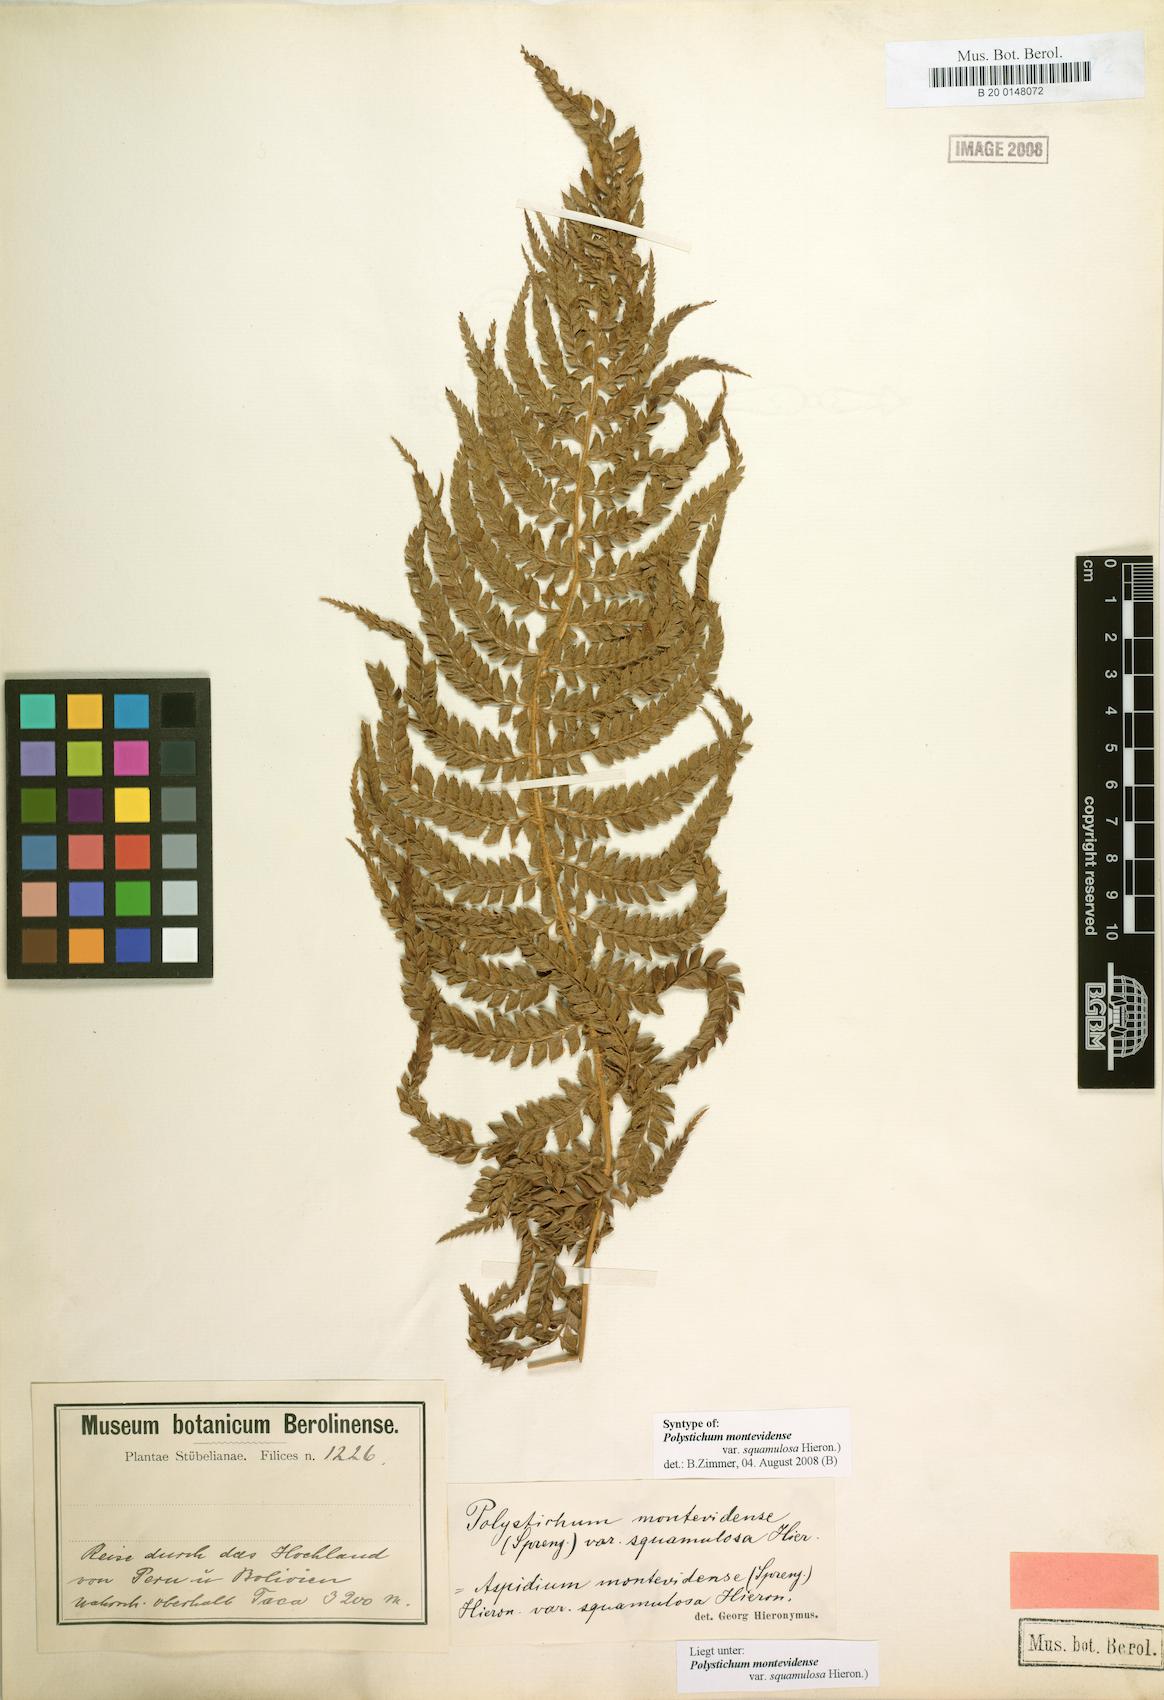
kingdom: Plantae
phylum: Tracheophyta
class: Polypodiopsida
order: Polypodiales
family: Dryopteridaceae
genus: Polystichum
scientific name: Polystichum montevidense
